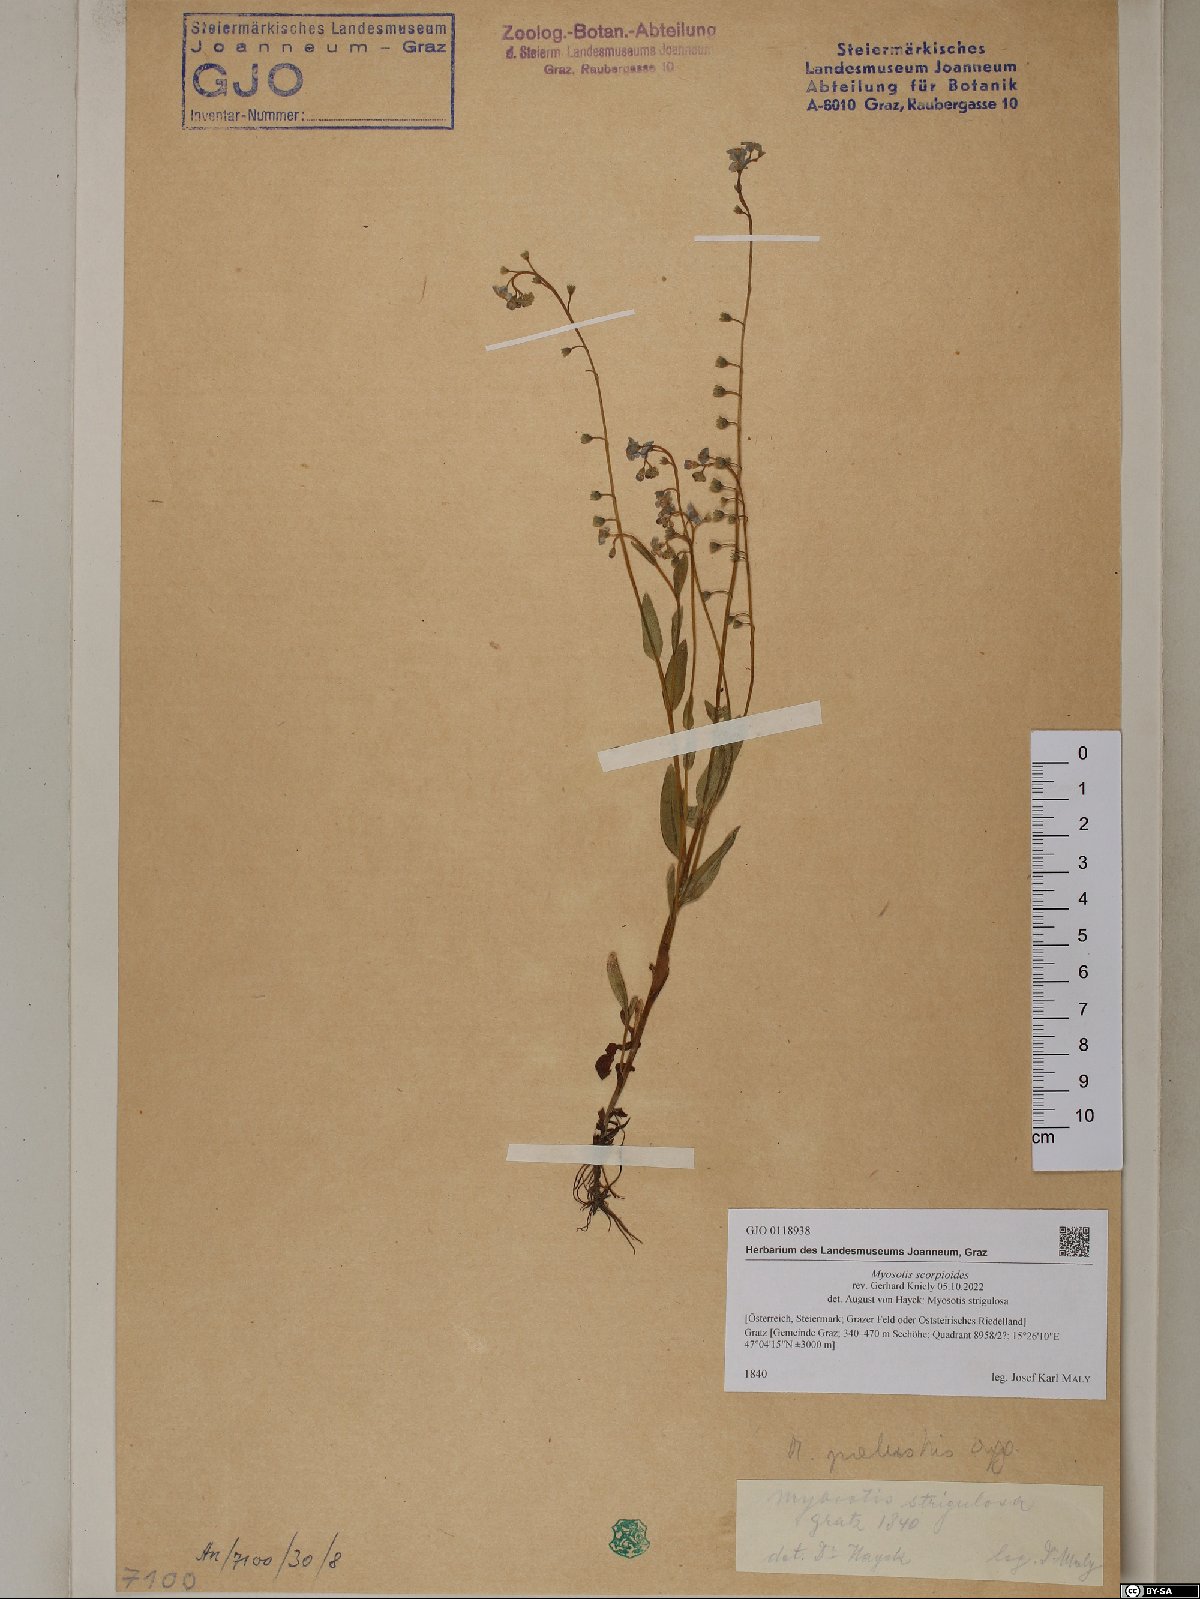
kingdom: Plantae
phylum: Tracheophyta
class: Magnoliopsida
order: Boraginales
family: Boraginaceae
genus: Myosotis
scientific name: Myosotis scorpioides
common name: Water forget-me-not
